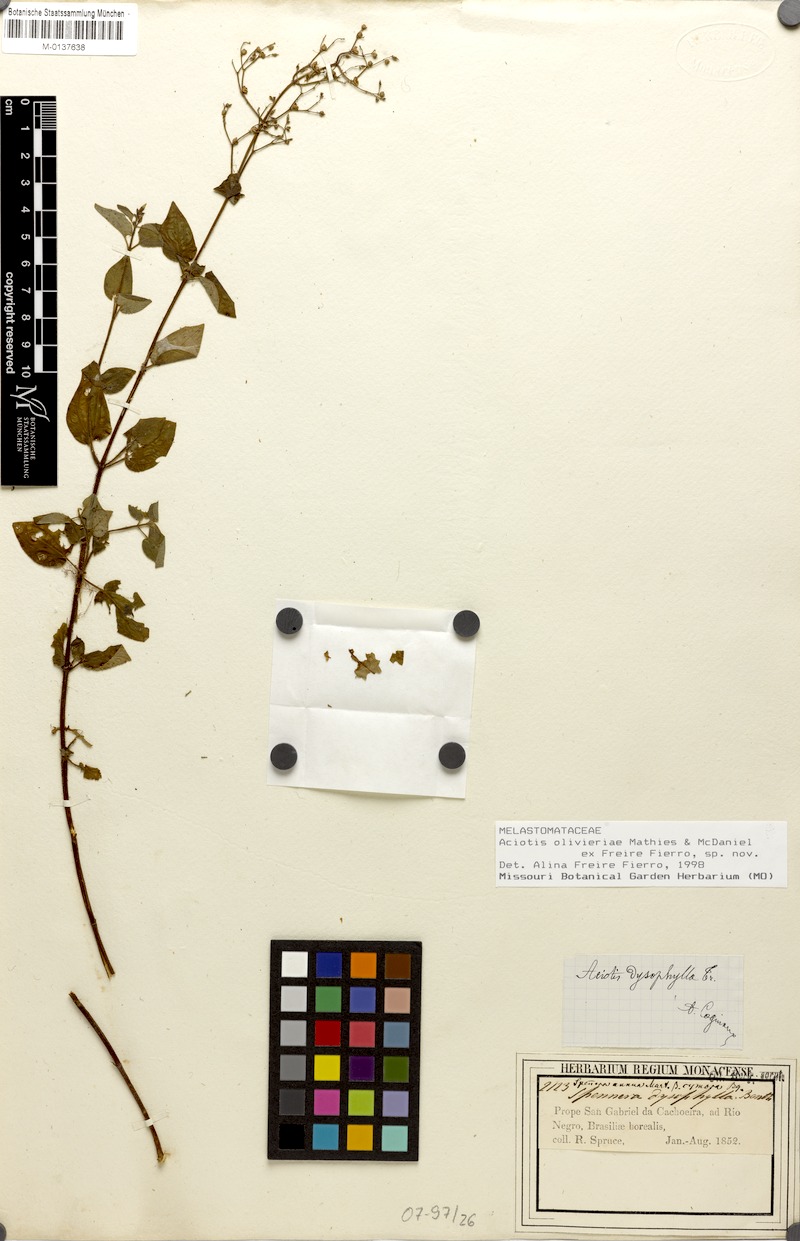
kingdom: Plantae
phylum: Tracheophyta
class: Magnoliopsida
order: Myrtales
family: Melastomataceae
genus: Aciotis
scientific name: Aciotis olivieriana
